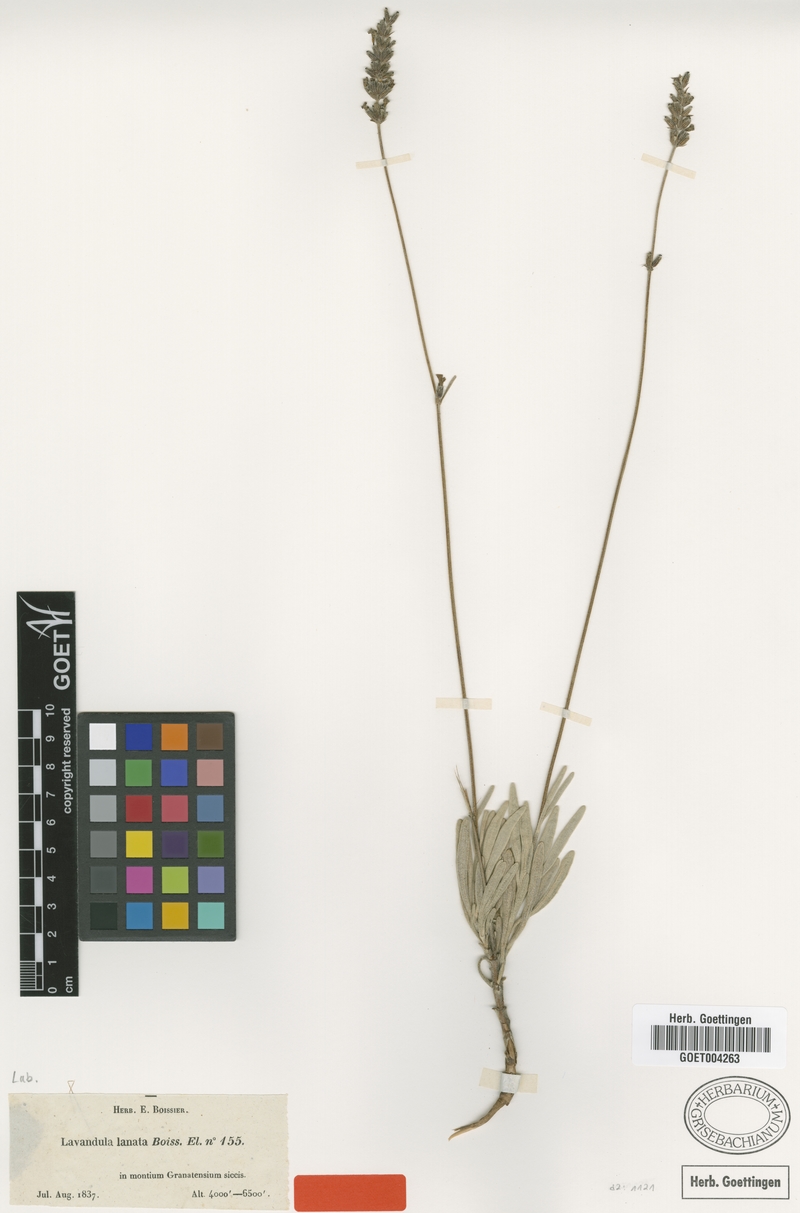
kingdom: Plantae
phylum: Tracheophyta
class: Magnoliopsida
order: Lamiales
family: Lamiaceae
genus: Lavandula
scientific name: Lavandula lanata
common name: Woolly lavender
